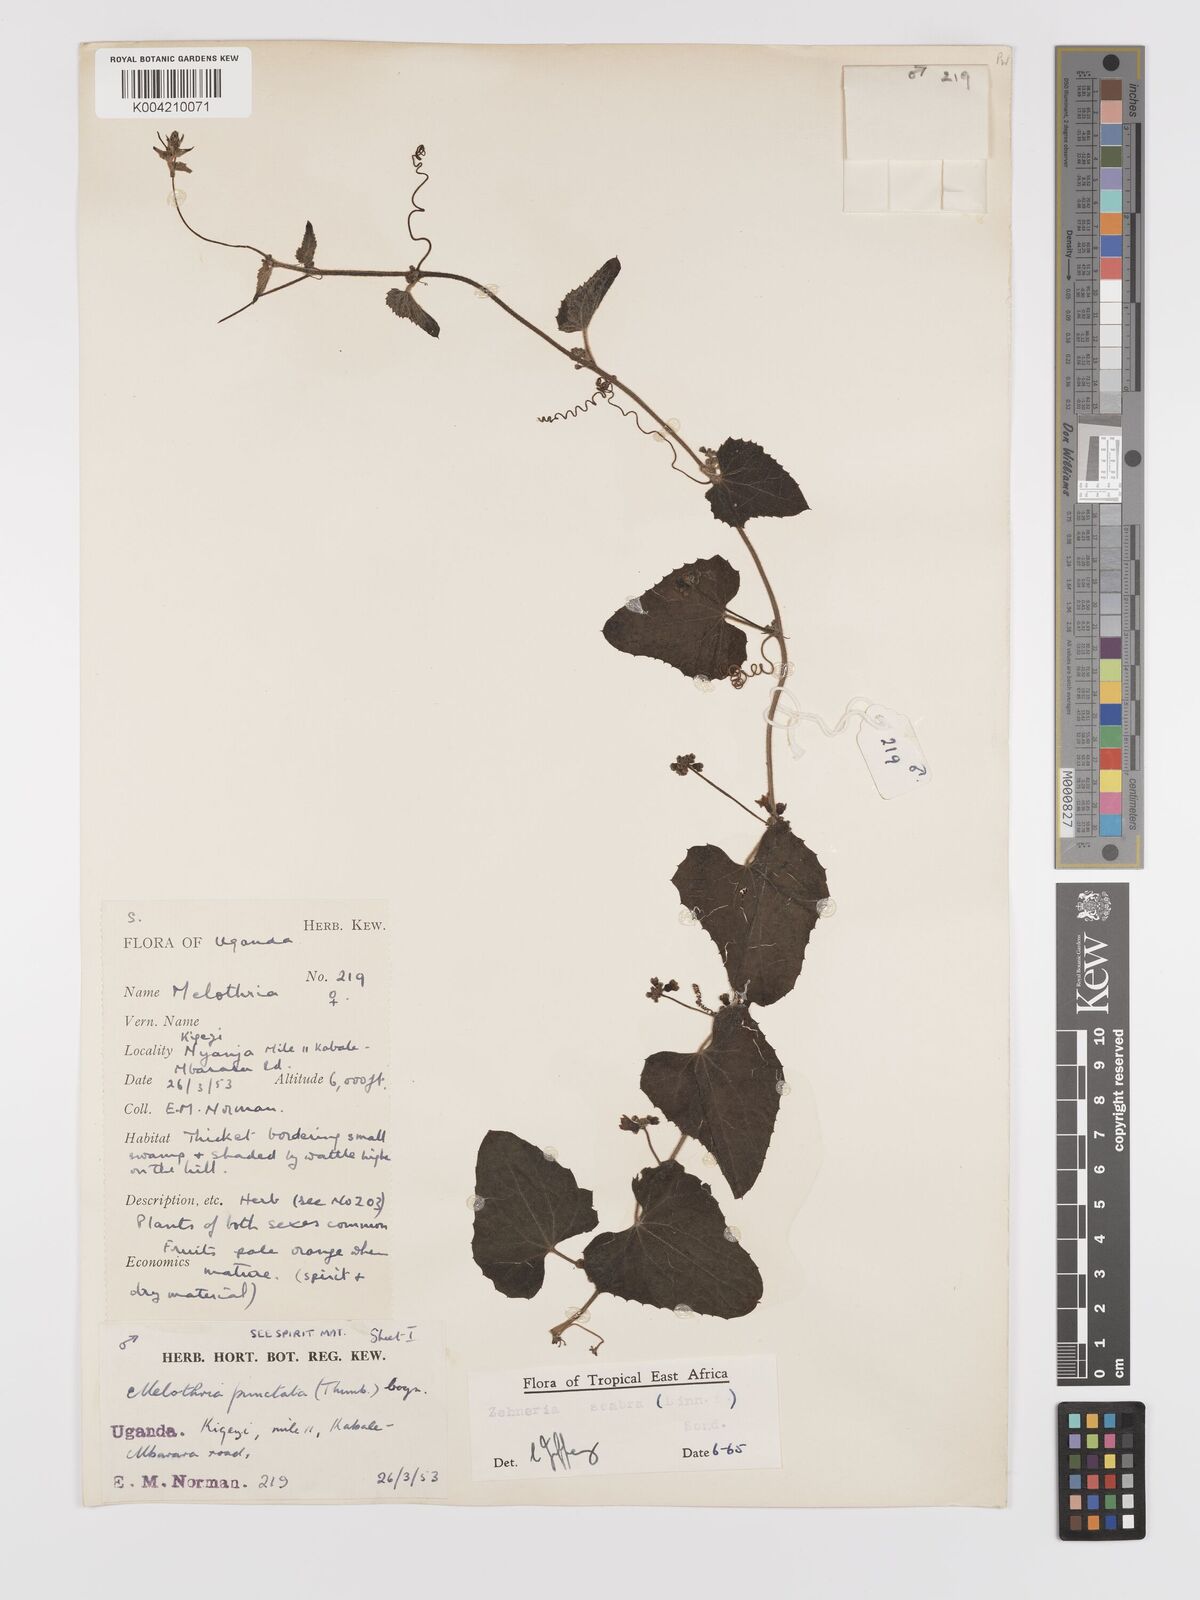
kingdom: Plantae
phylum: Tracheophyta
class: Magnoliopsida
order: Cucurbitales
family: Cucurbitaceae
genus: Zehneria
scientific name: Zehneria scabra
